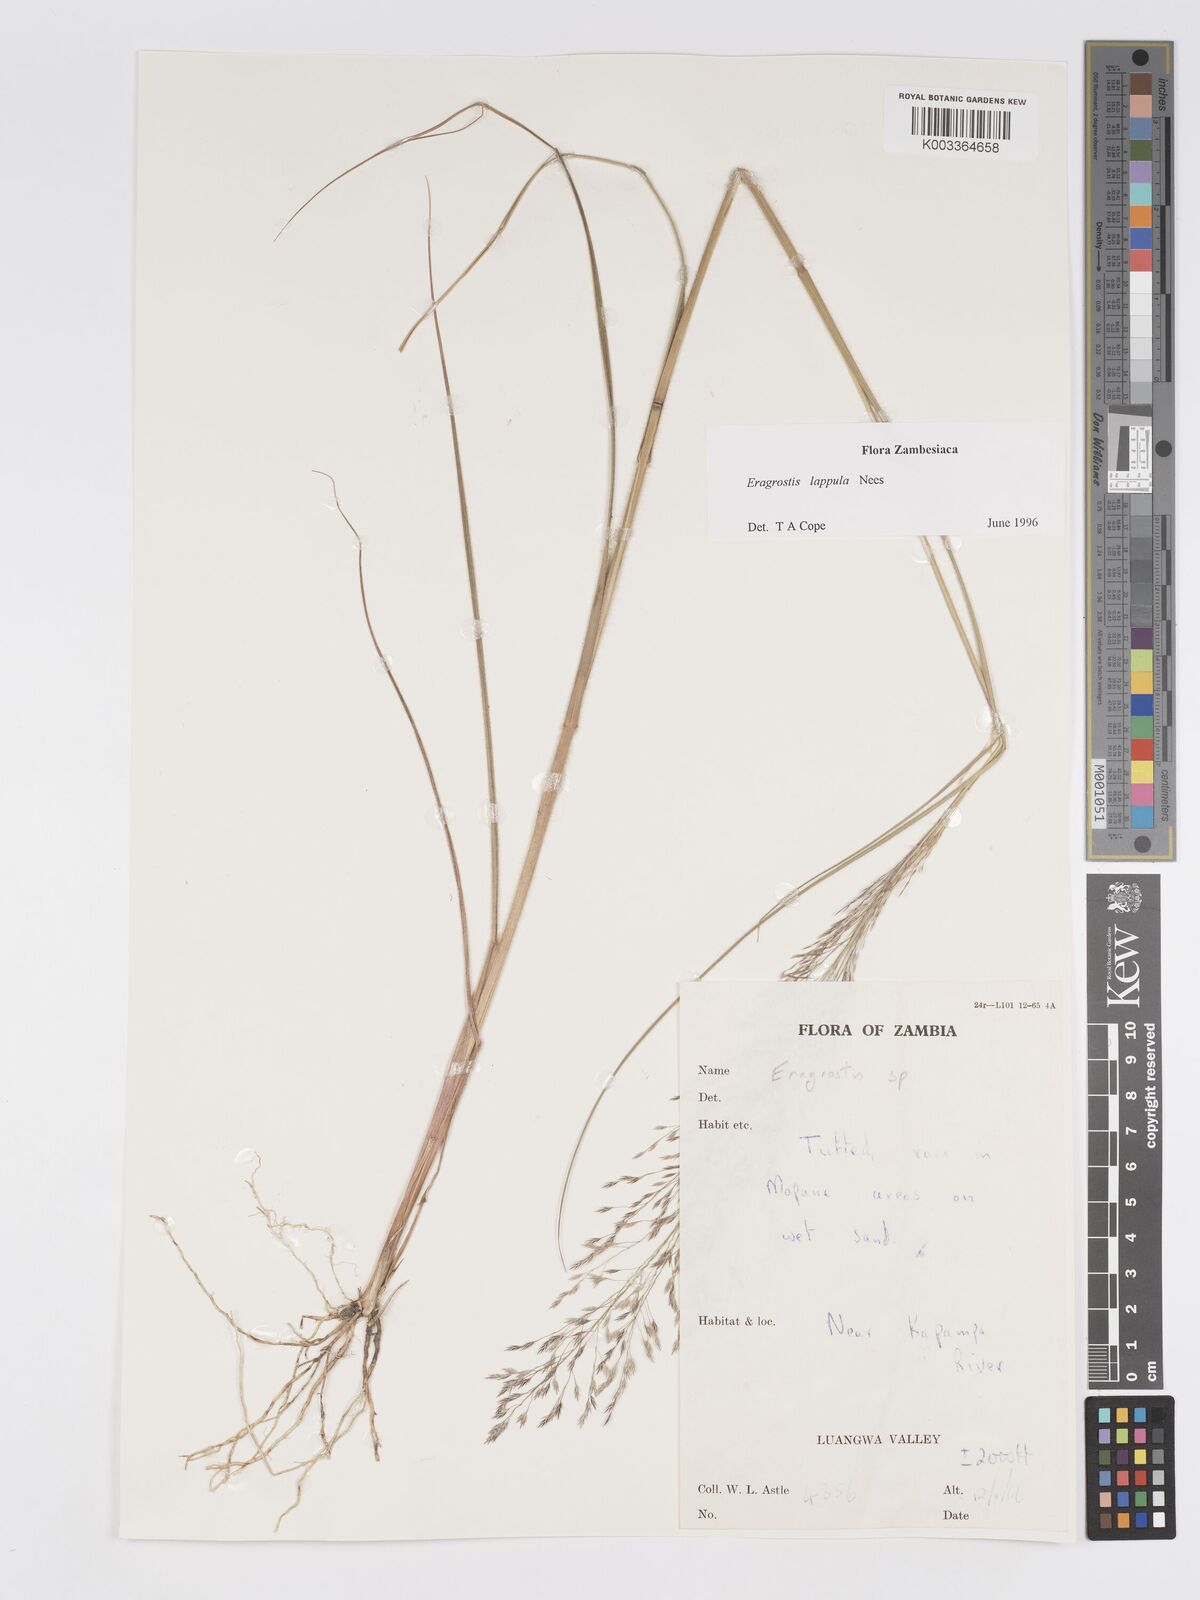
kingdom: Plantae
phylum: Tracheophyta
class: Liliopsida
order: Poales
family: Poaceae
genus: Eragrostis
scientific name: Eragrostis lappula
